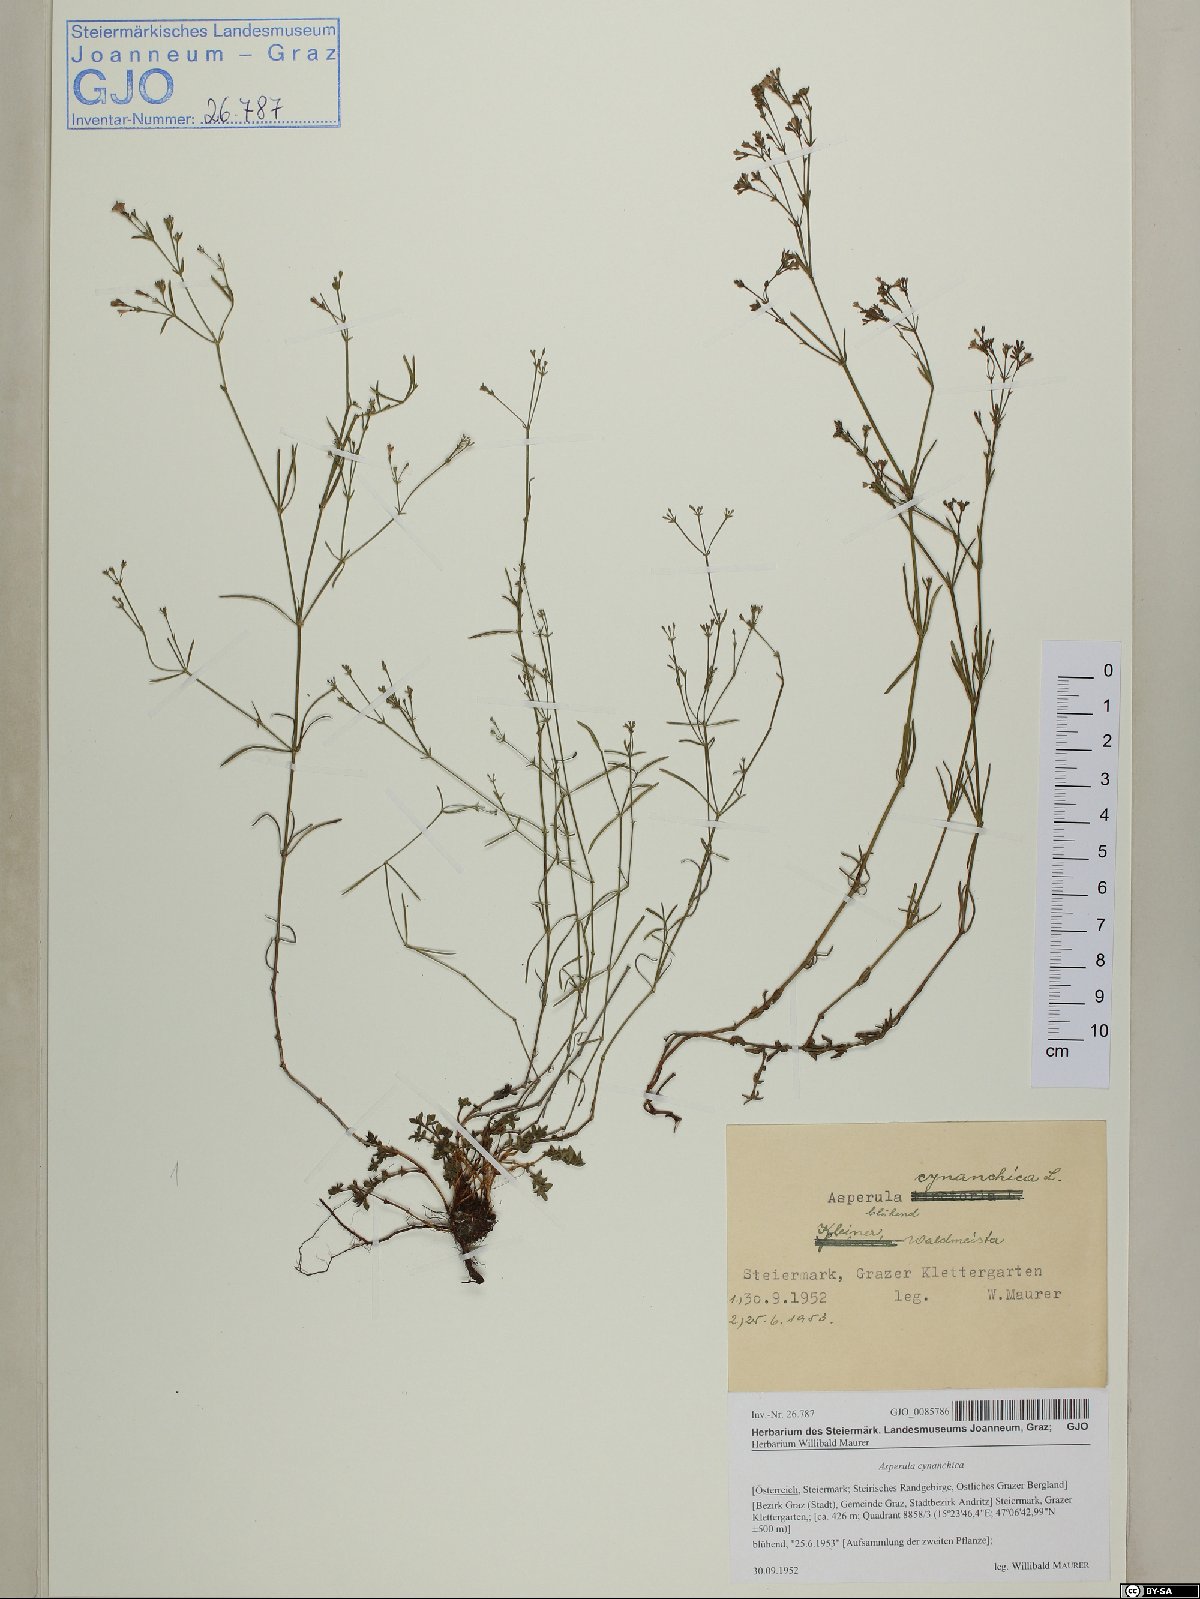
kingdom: Plantae
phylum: Tracheophyta
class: Magnoliopsida
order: Gentianales
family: Rubiaceae
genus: Cynanchica
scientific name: Cynanchica pyrenaica
